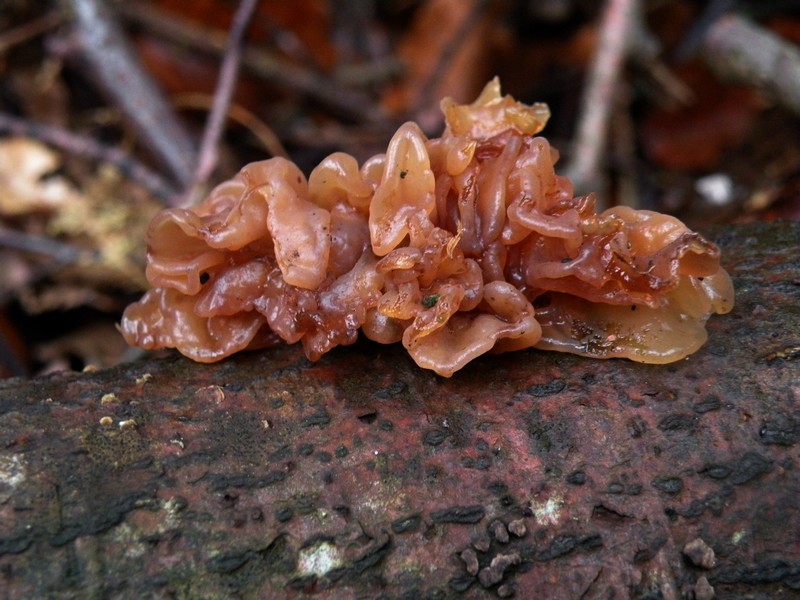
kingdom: Fungi
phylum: Basidiomycota
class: Tremellomycetes
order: Tremellales
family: Tremellaceae
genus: Phaeotremella
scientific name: Phaeotremella frondosa
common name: kæmpe-bævresvamp
